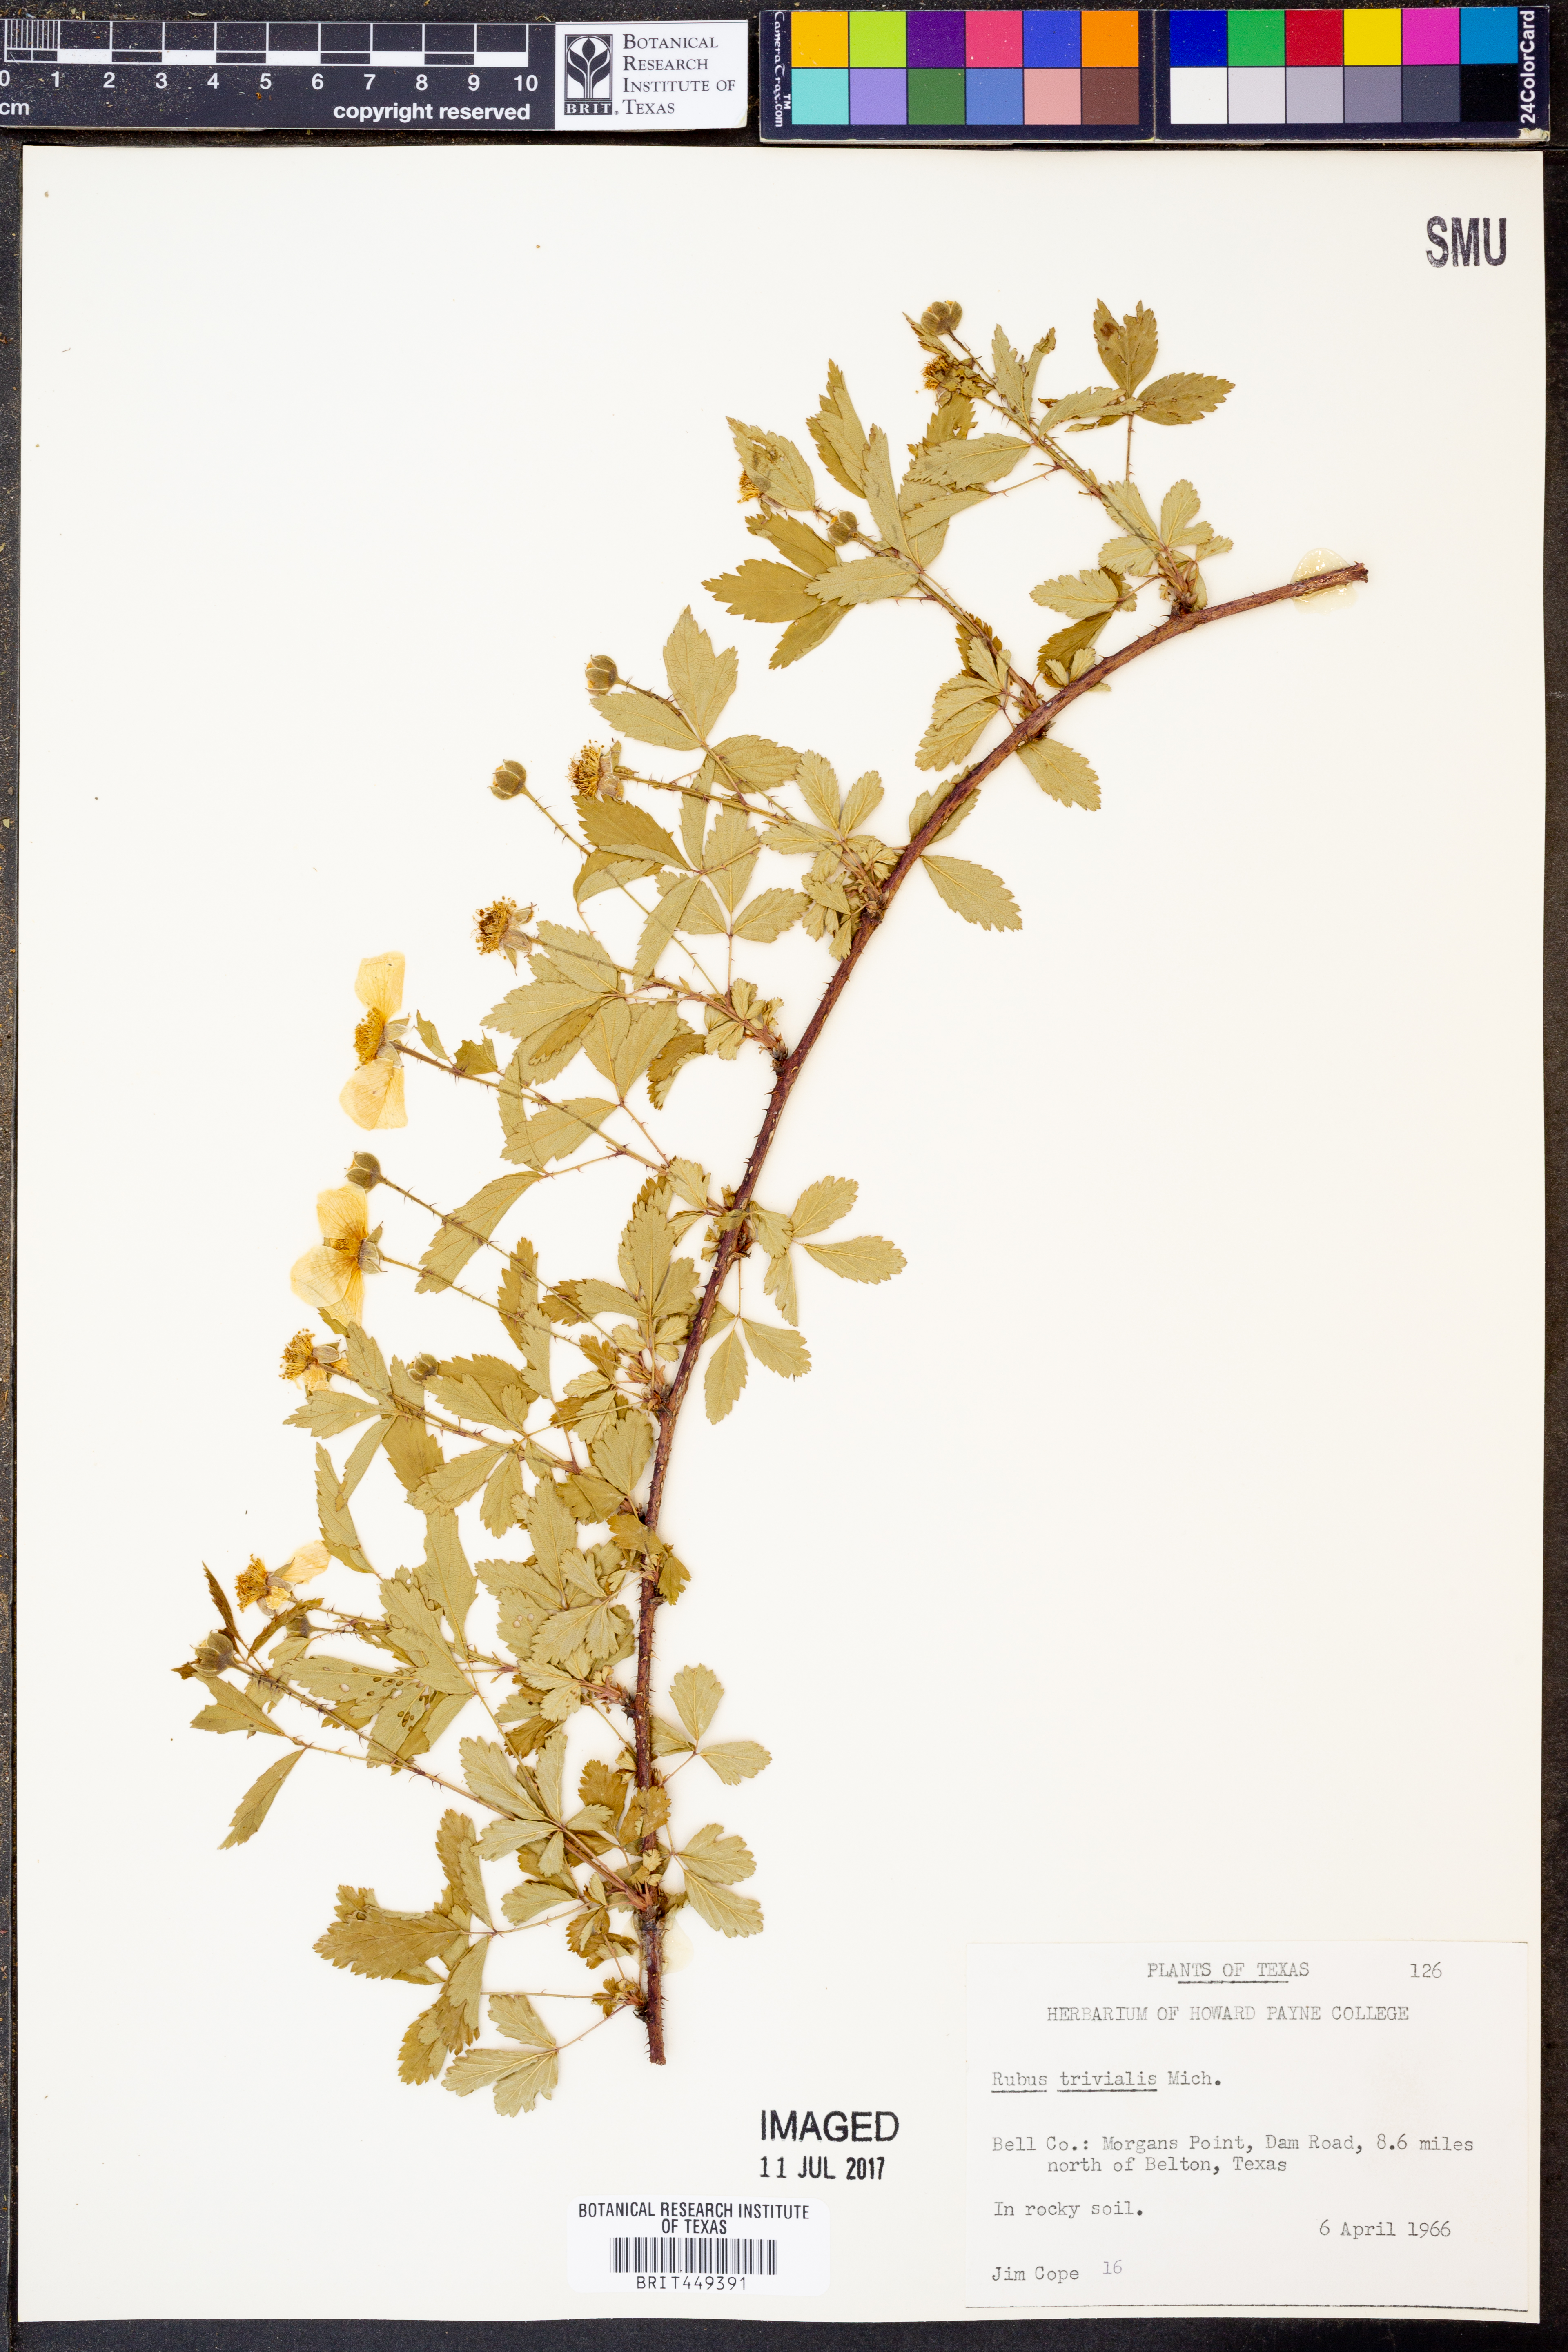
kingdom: Plantae
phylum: Tracheophyta
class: Magnoliopsida
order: Rosales
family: Rosaceae
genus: Rubus
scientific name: Rubus trivialis
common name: Southern dewberry
